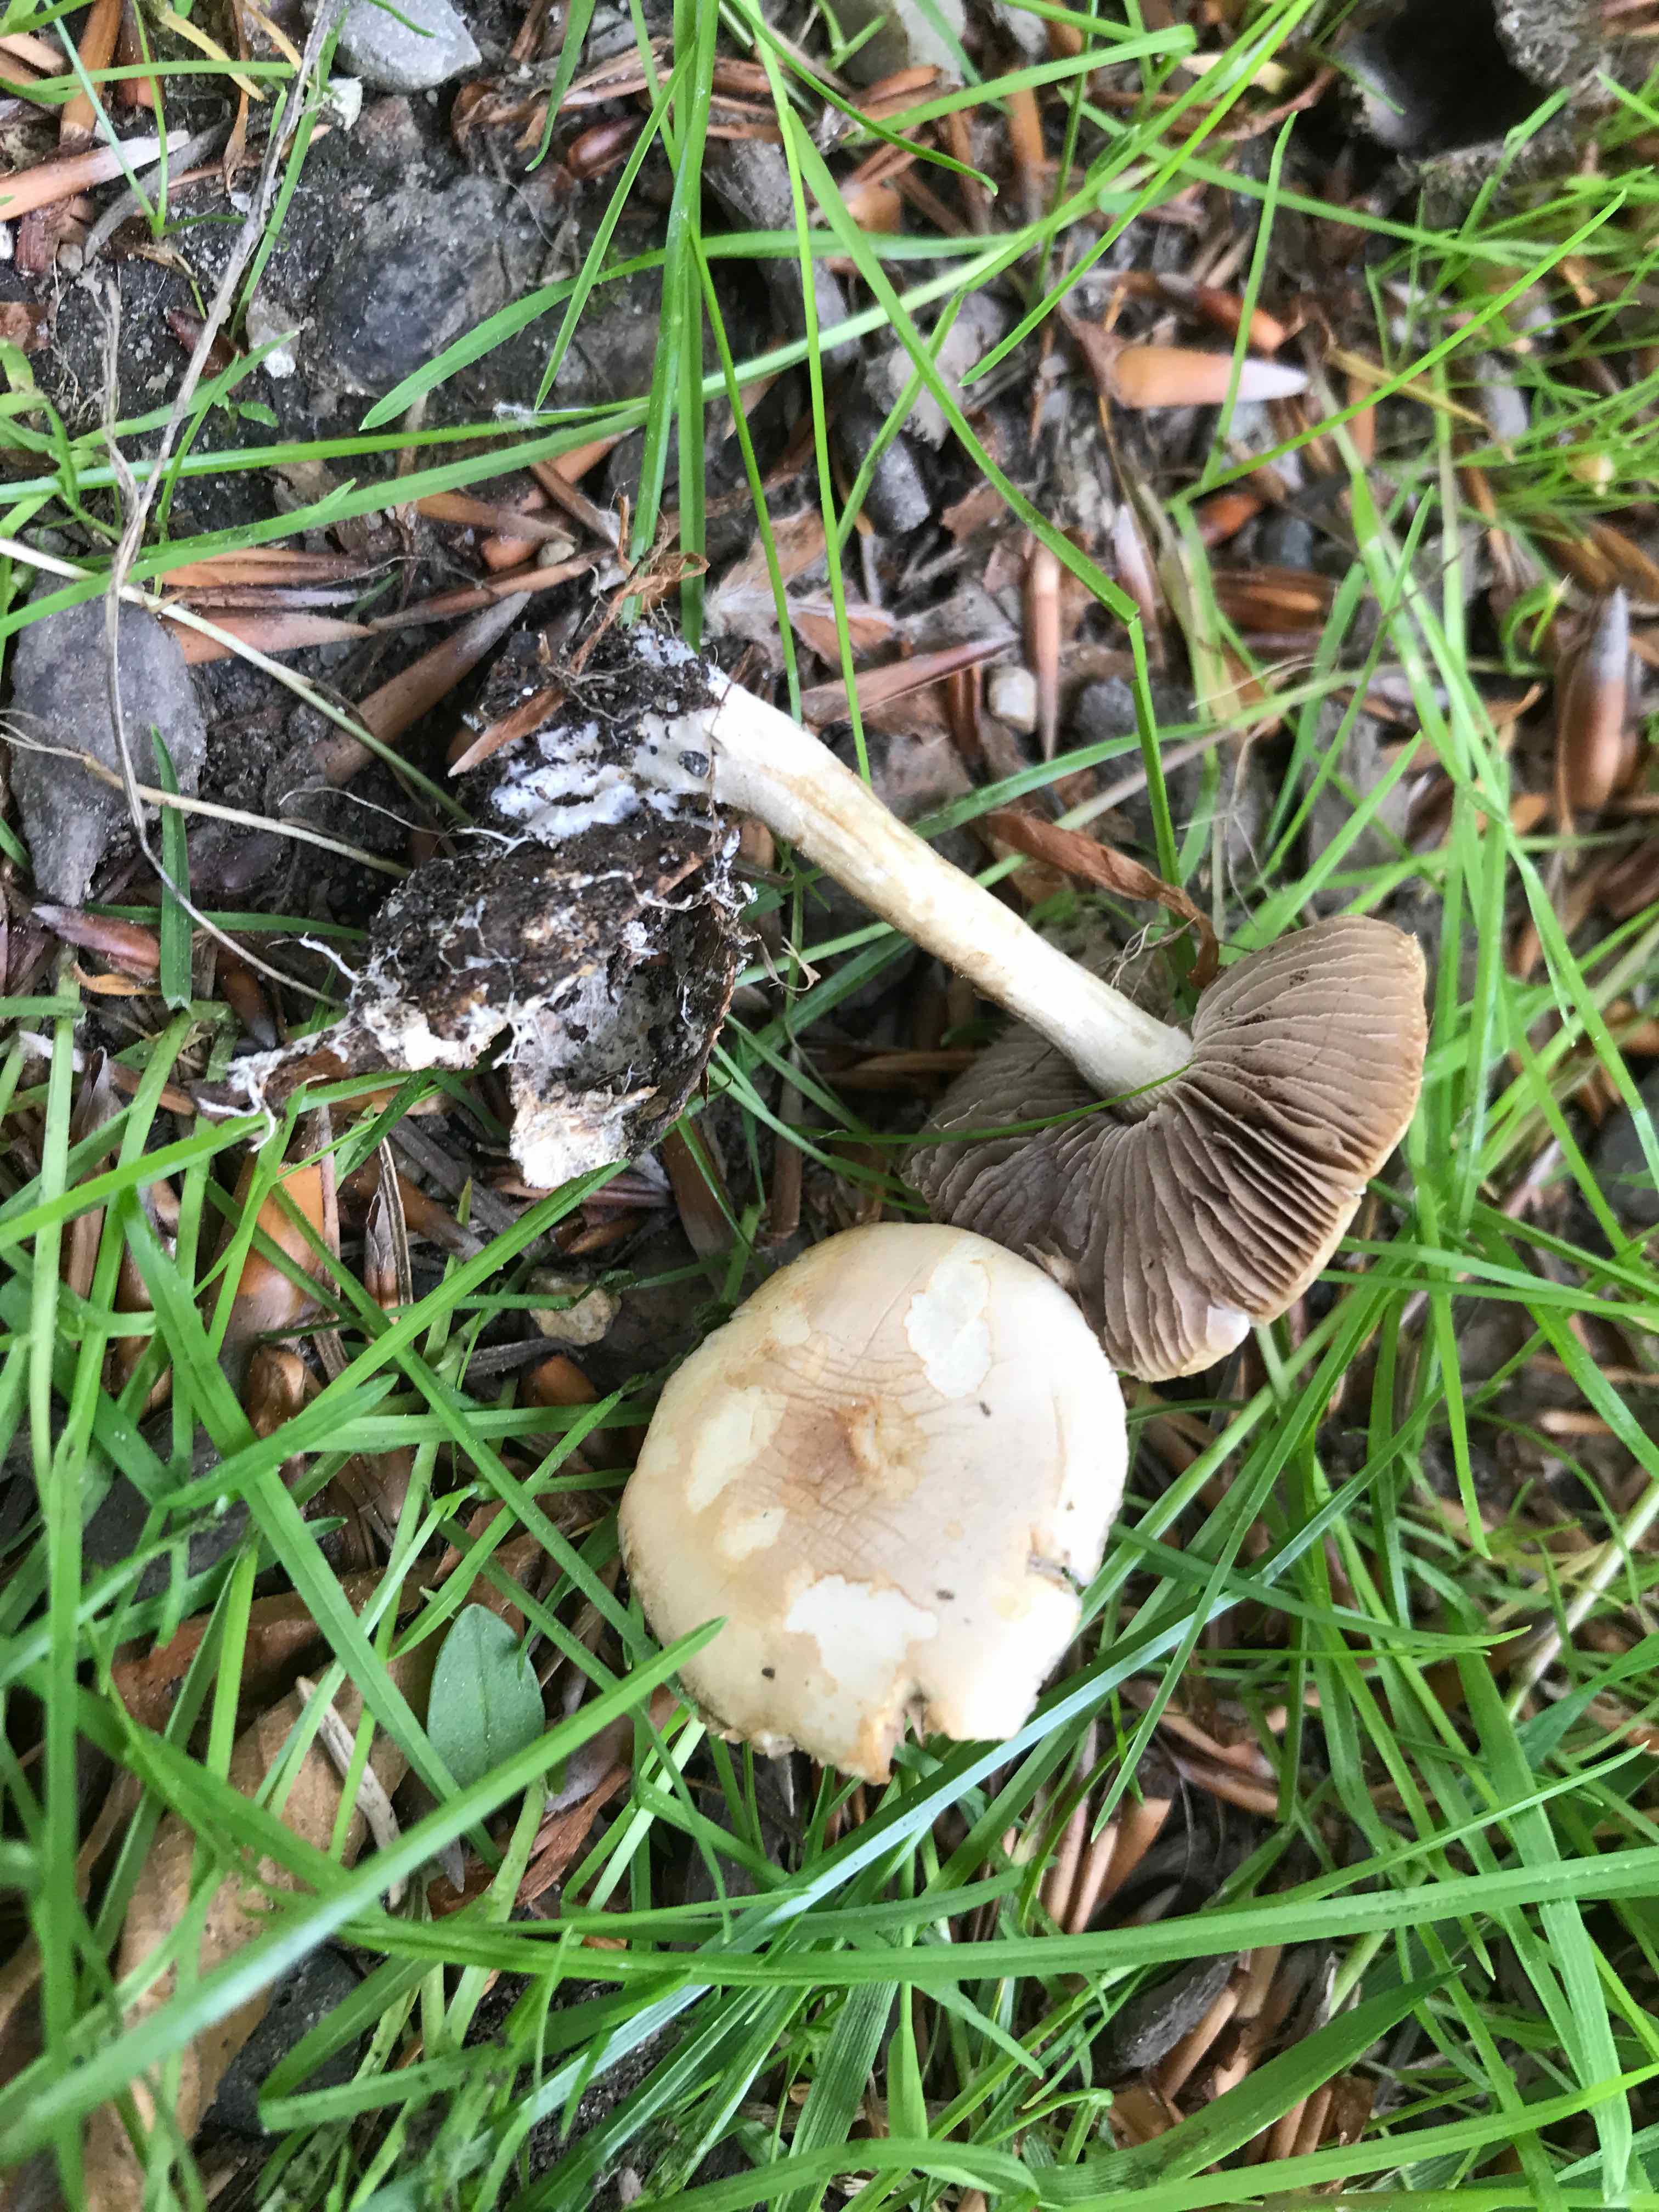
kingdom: Fungi
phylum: Basidiomycota
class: Agaricomycetes
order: Agaricales
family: Strophariaceae
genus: Agrocybe
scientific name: Agrocybe
